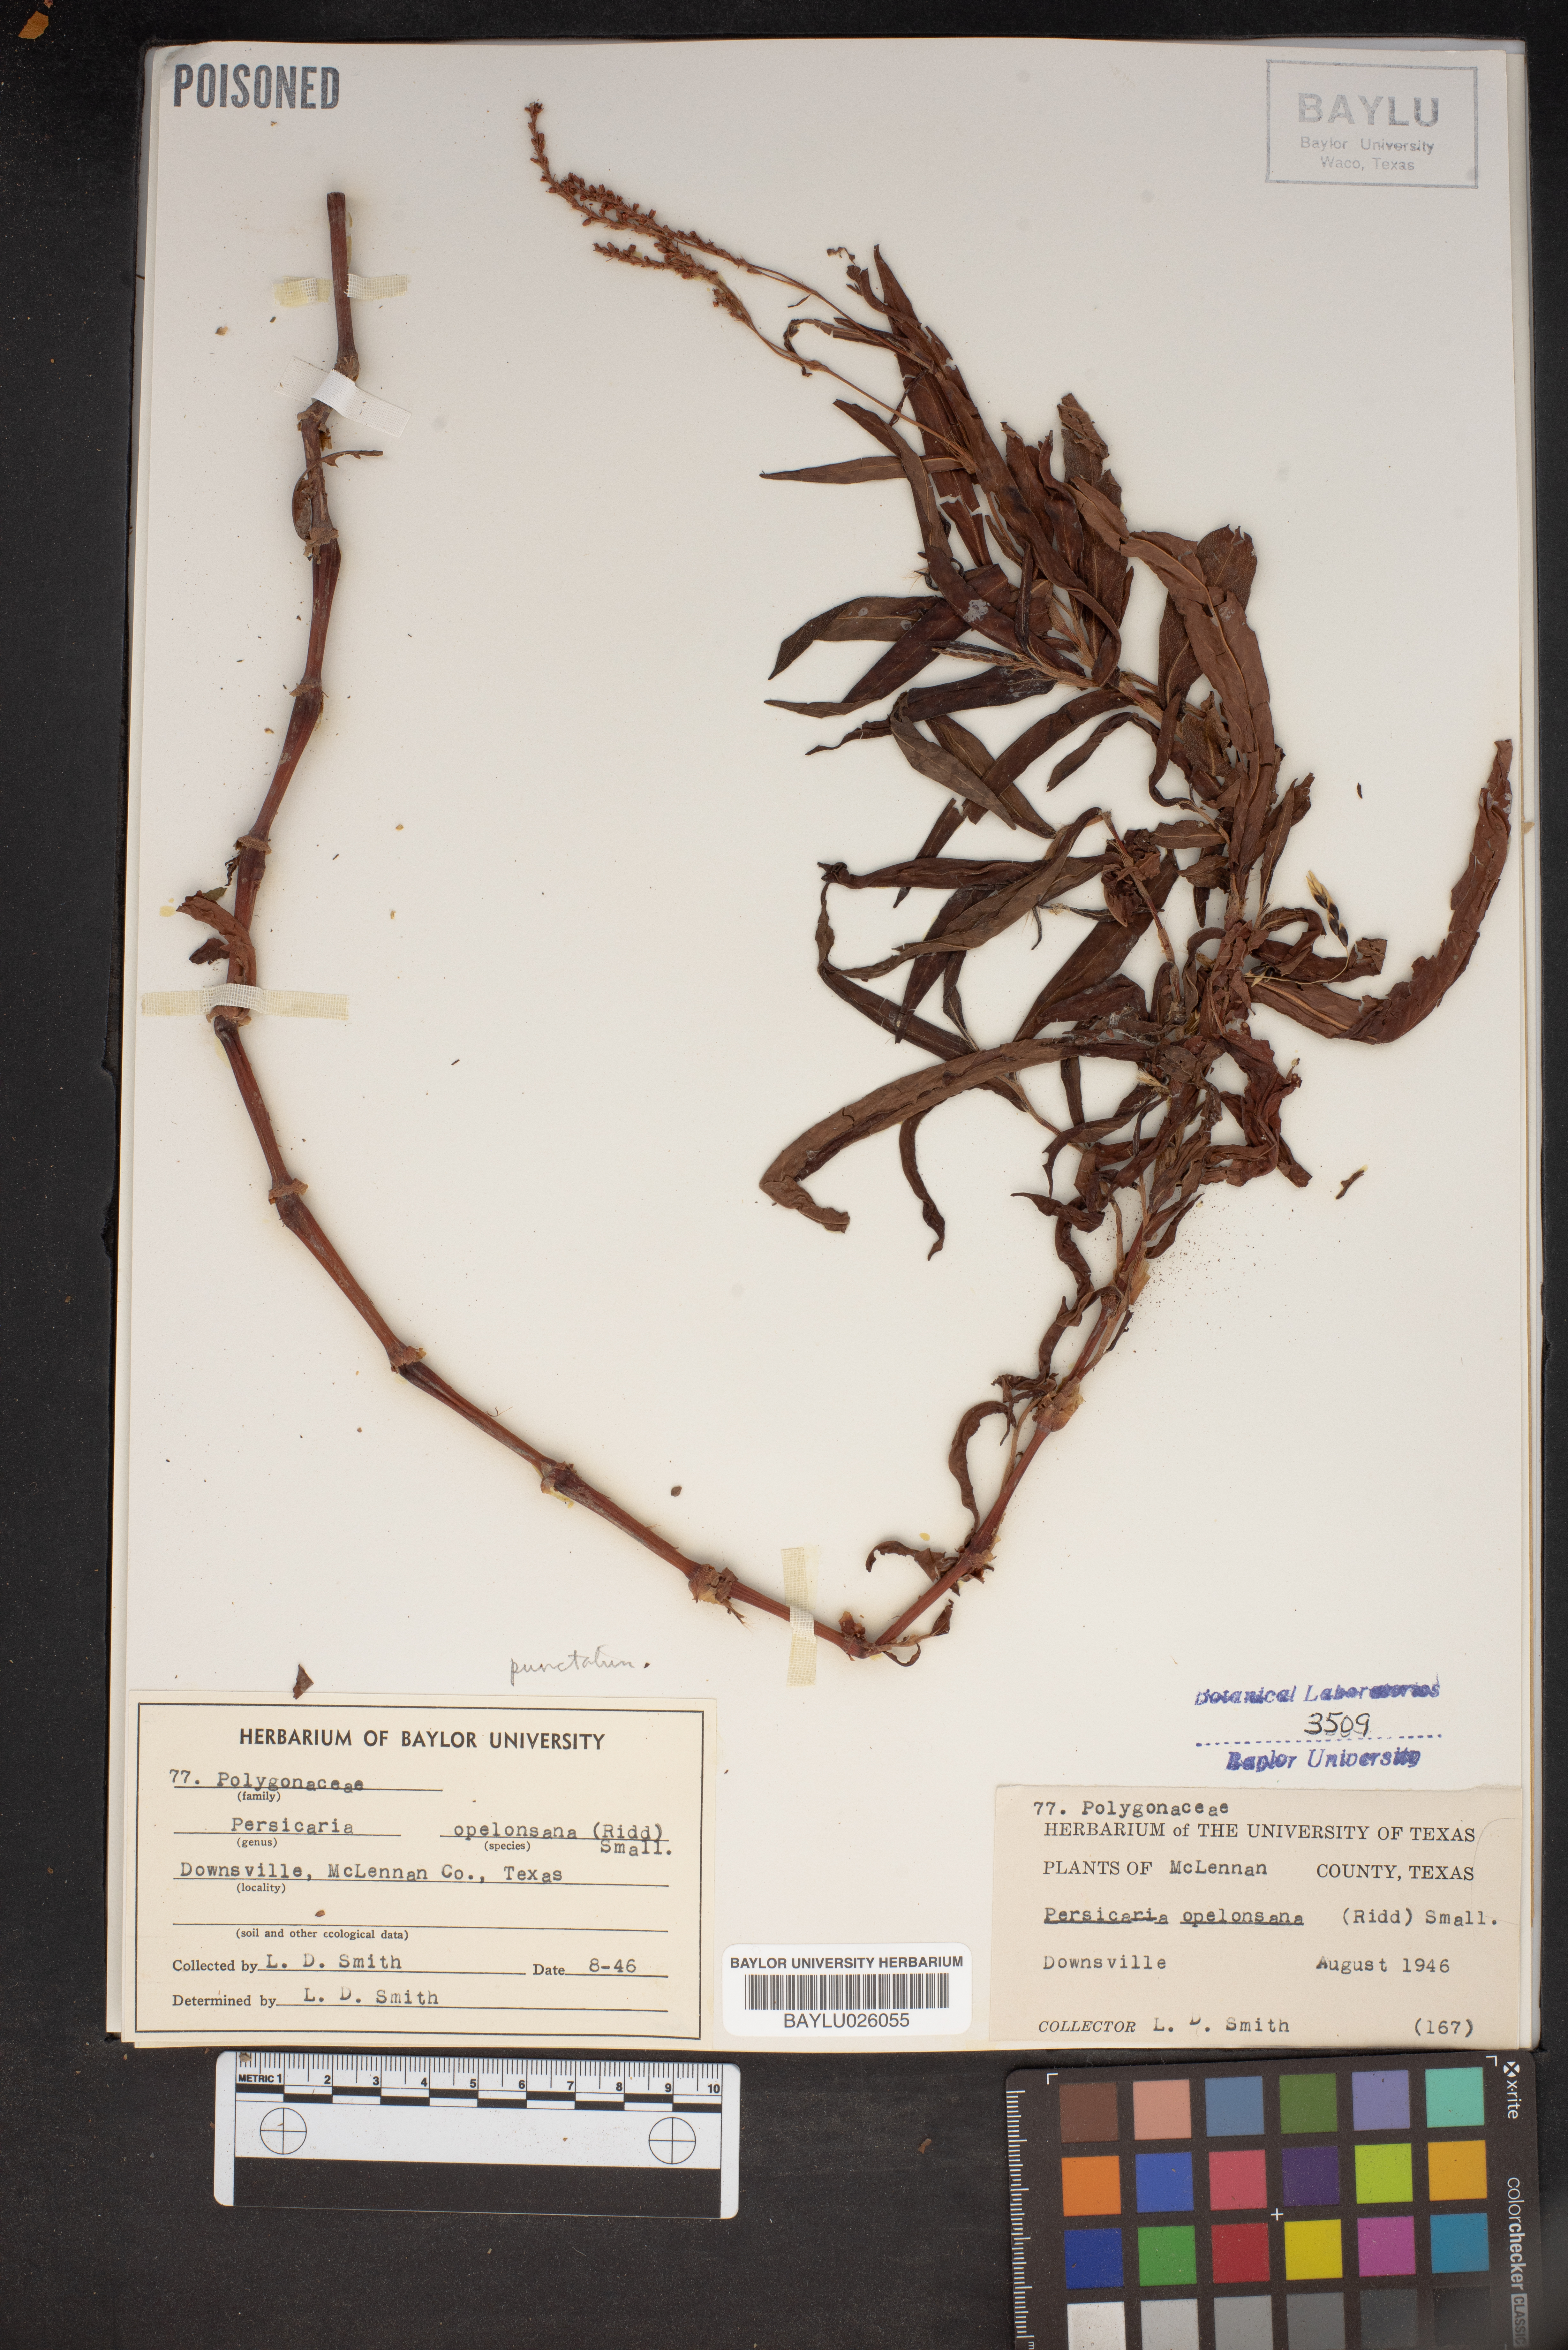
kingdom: Plantae
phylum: Tracheophyta
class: Magnoliopsida
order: Caryophyllales
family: Polygonaceae
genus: Persicaria
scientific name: Persicaria hydropiperoides
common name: Swamp smartweed
